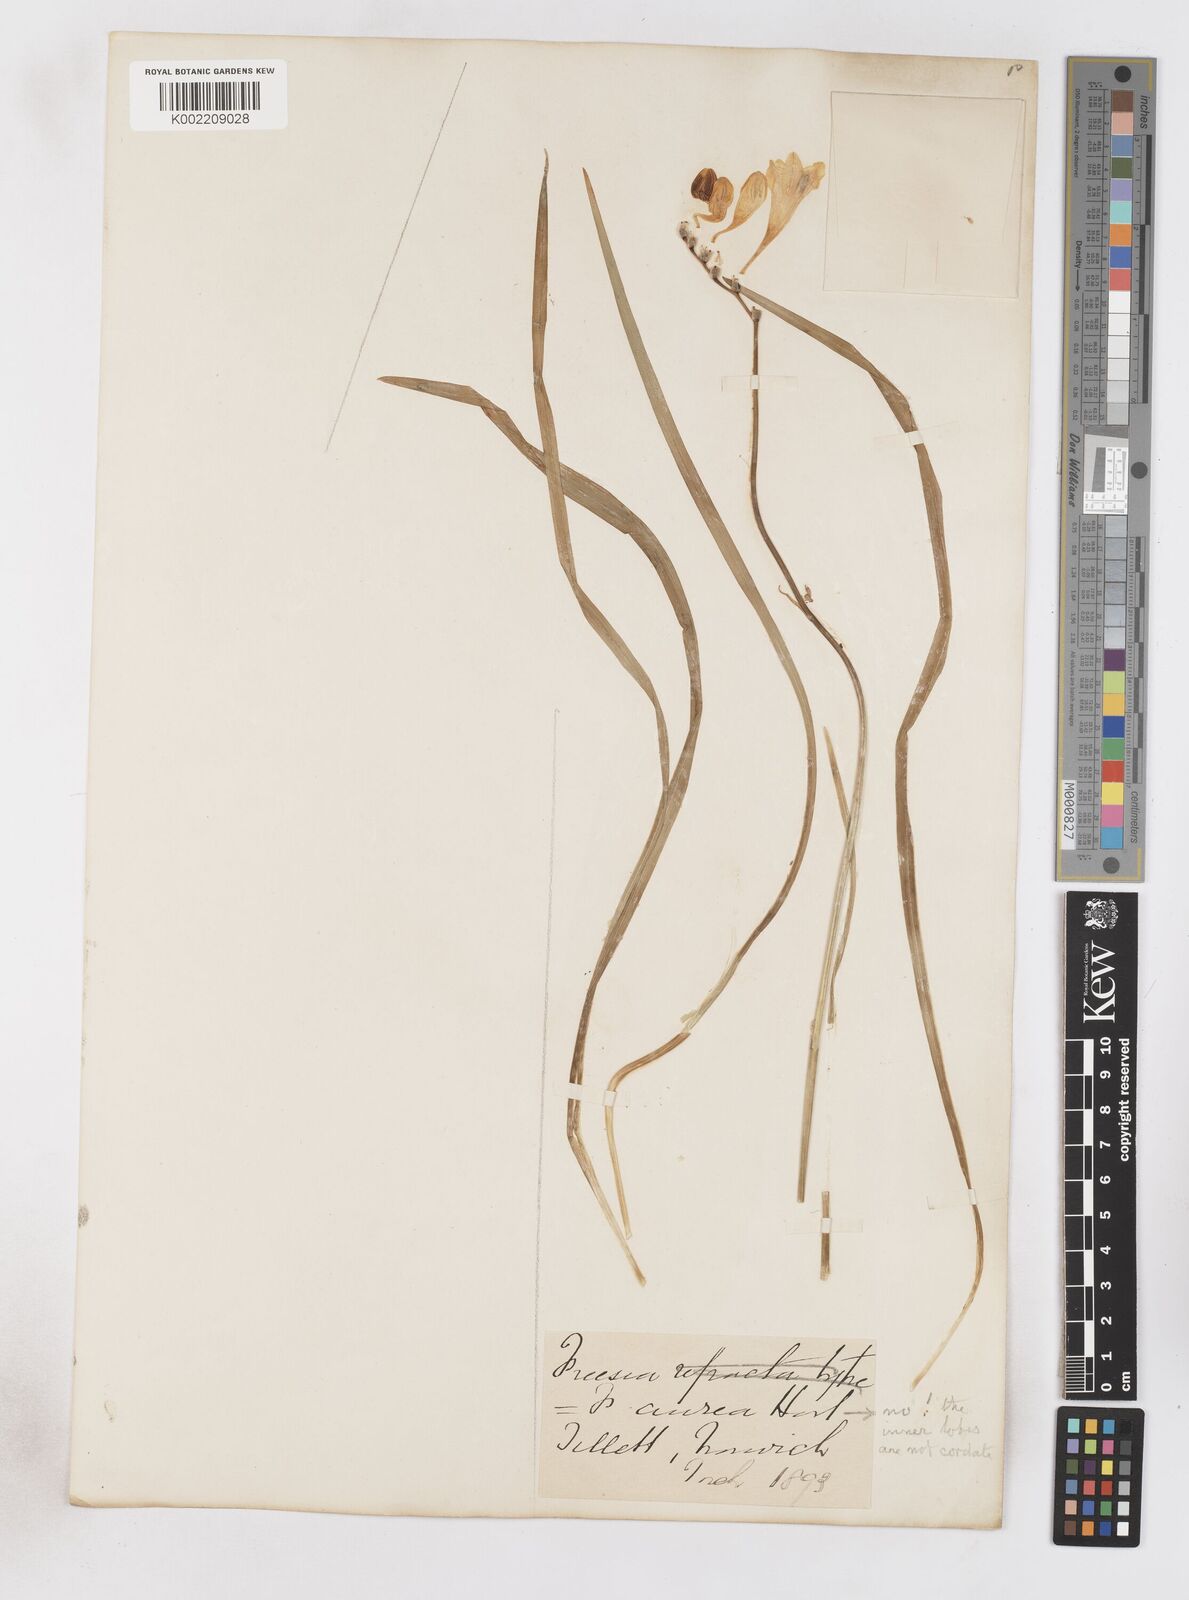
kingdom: Plantae
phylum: Tracheophyta
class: Liliopsida
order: Asparagales
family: Iridaceae
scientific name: Iridaceae
